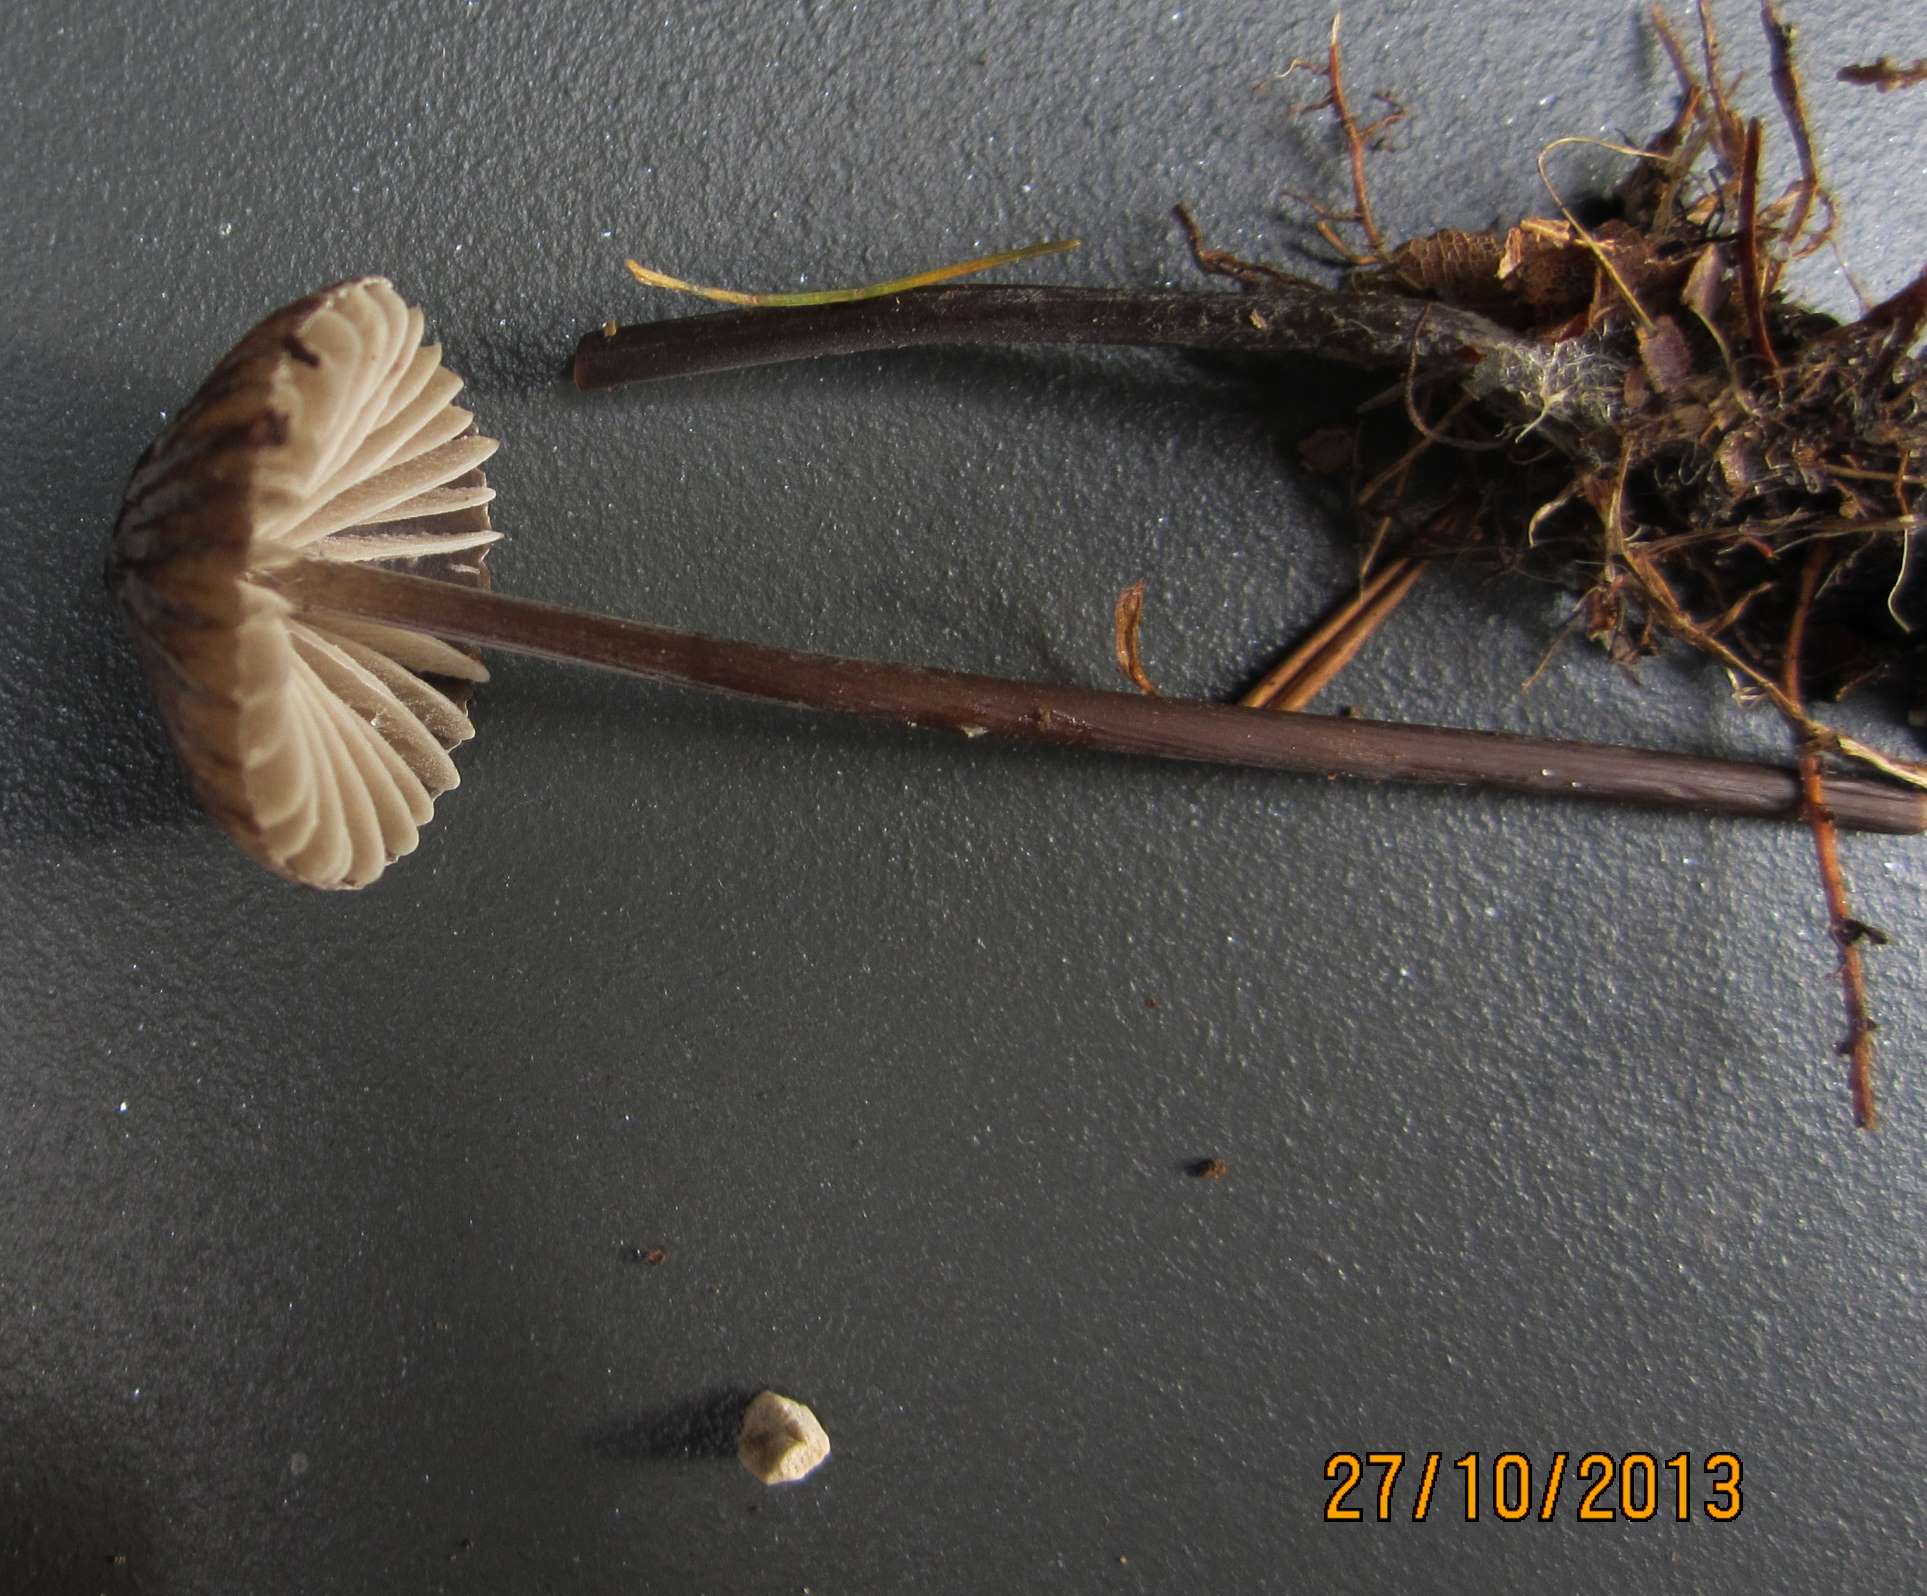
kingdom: Fungi
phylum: Basidiomycota
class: Agaricomycetes
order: Agaricales
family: Mycenaceae
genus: Mycena
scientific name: Mycena galopus
